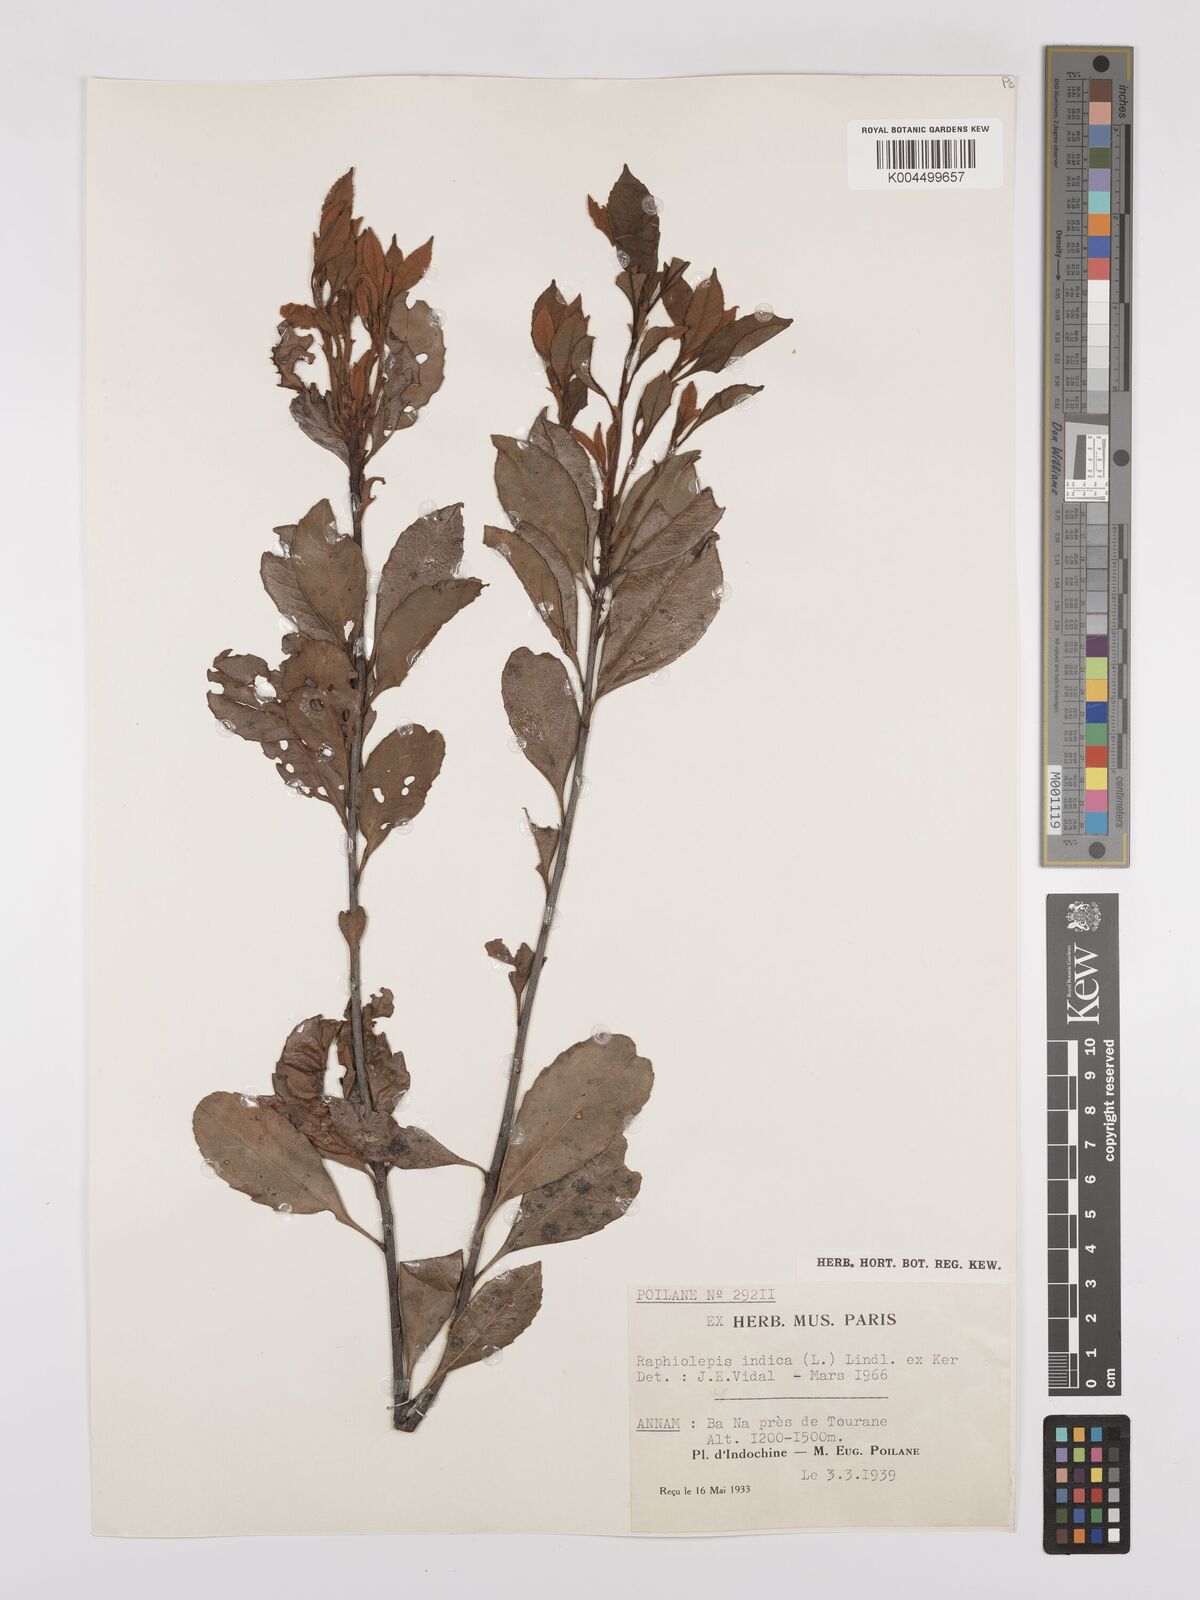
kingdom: Plantae
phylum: Tracheophyta
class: Magnoliopsida
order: Rosales
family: Rosaceae
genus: Rhaphiolepis
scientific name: Rhaphiolepis indica
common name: India-hawthorn
